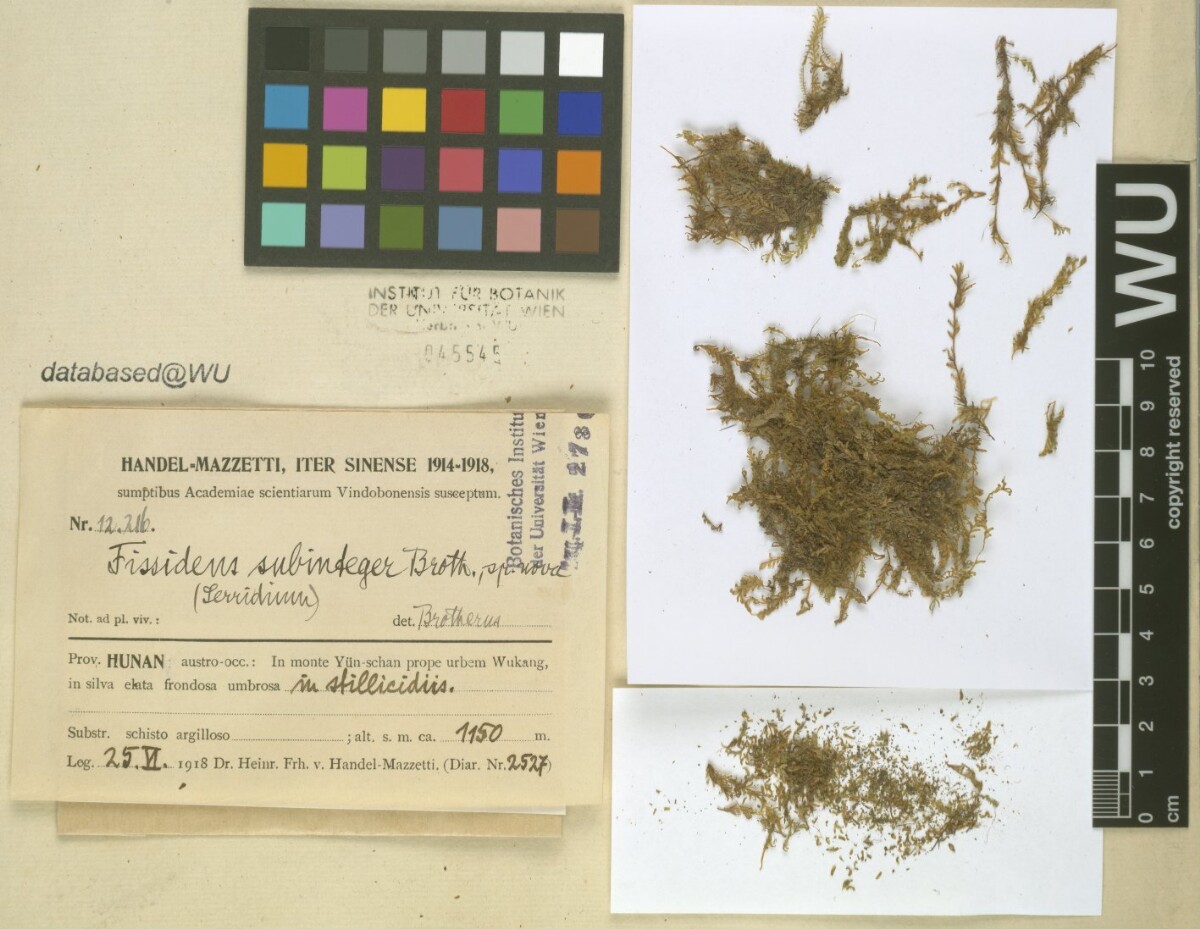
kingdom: Plantae
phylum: Bryophyta
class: Bryopsida
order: Dicranales
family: Fissidentaceae
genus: Fissidens
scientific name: Fissidens involutus
